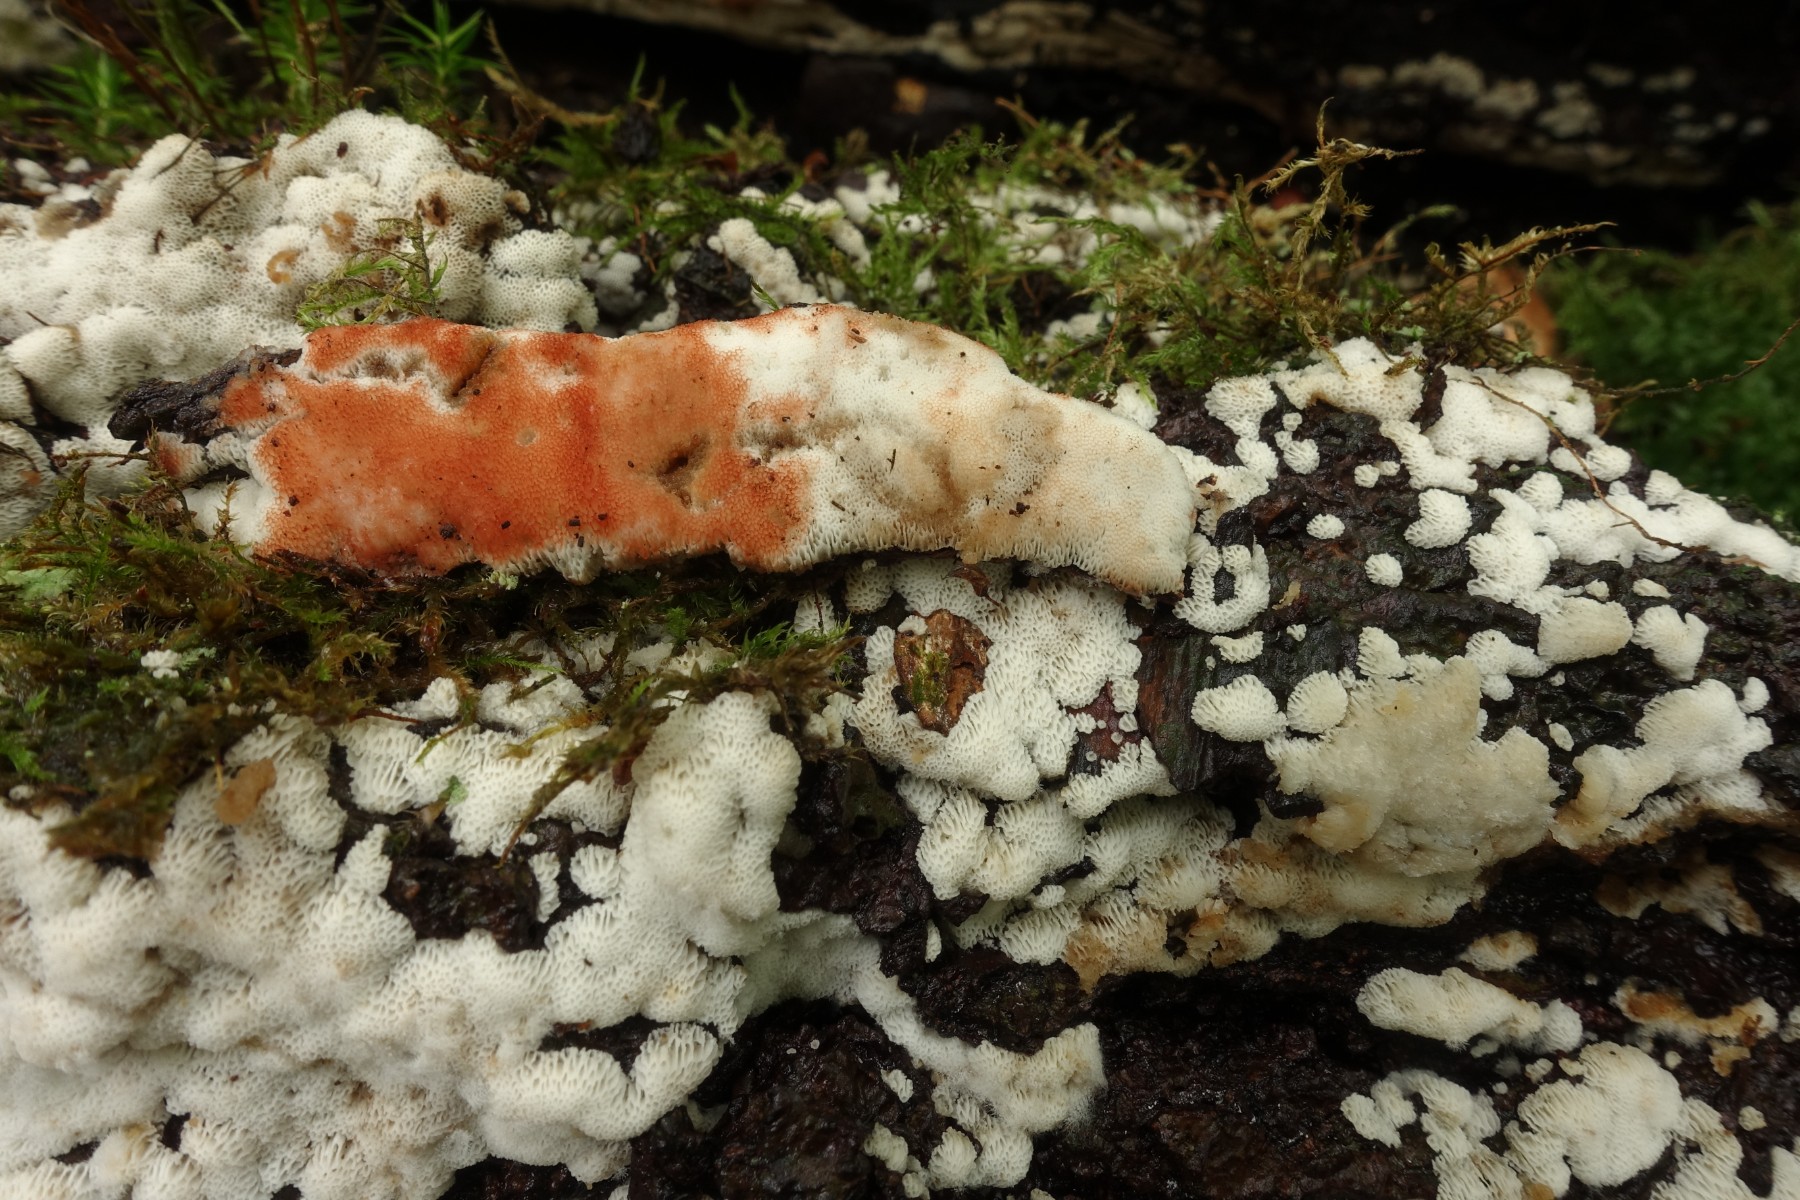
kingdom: Fungi
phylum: Basidiomycota
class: Agaricomycetes
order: Polyporales
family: Meripilaceae
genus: Rigidoporus
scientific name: Rigidoporus sanguinolentus
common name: blod-skorpeporesvamp
